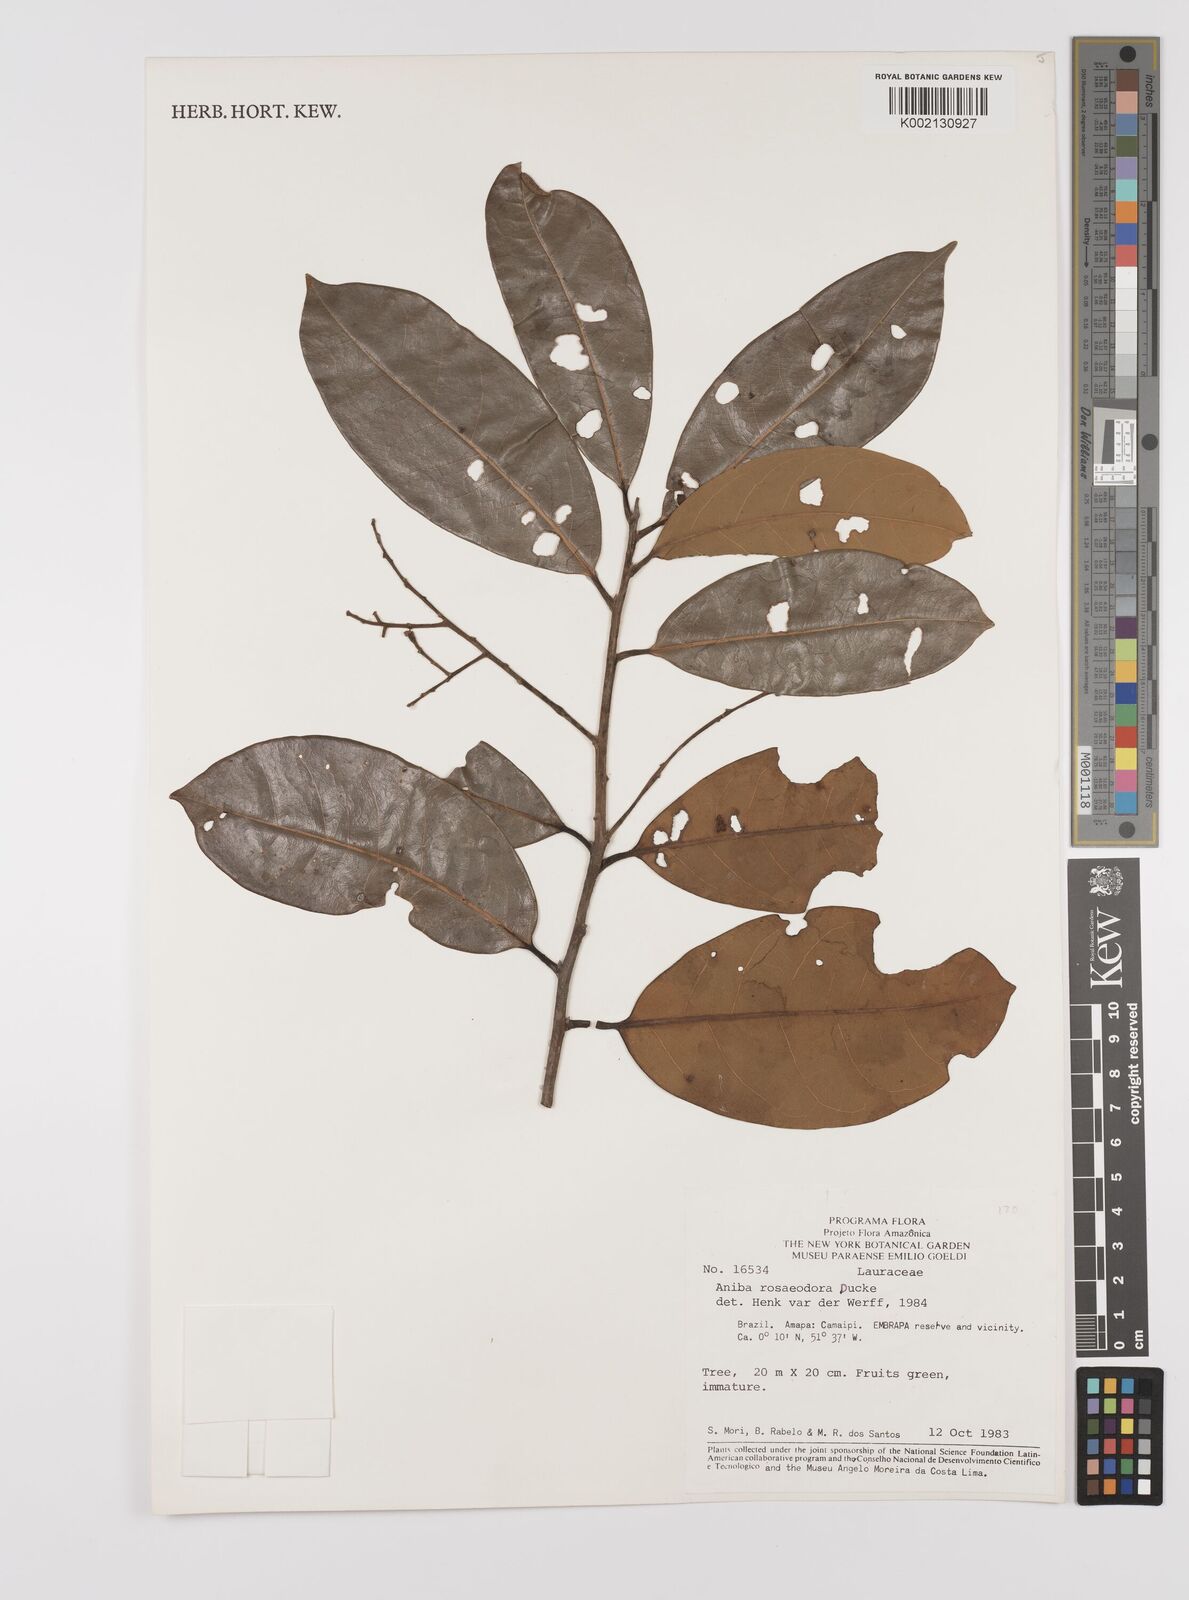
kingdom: Plantae
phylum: Tracheophyta
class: Magnoliopsida
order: Laurales
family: Lauraceae
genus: Aniba
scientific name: Aniba rosodora
